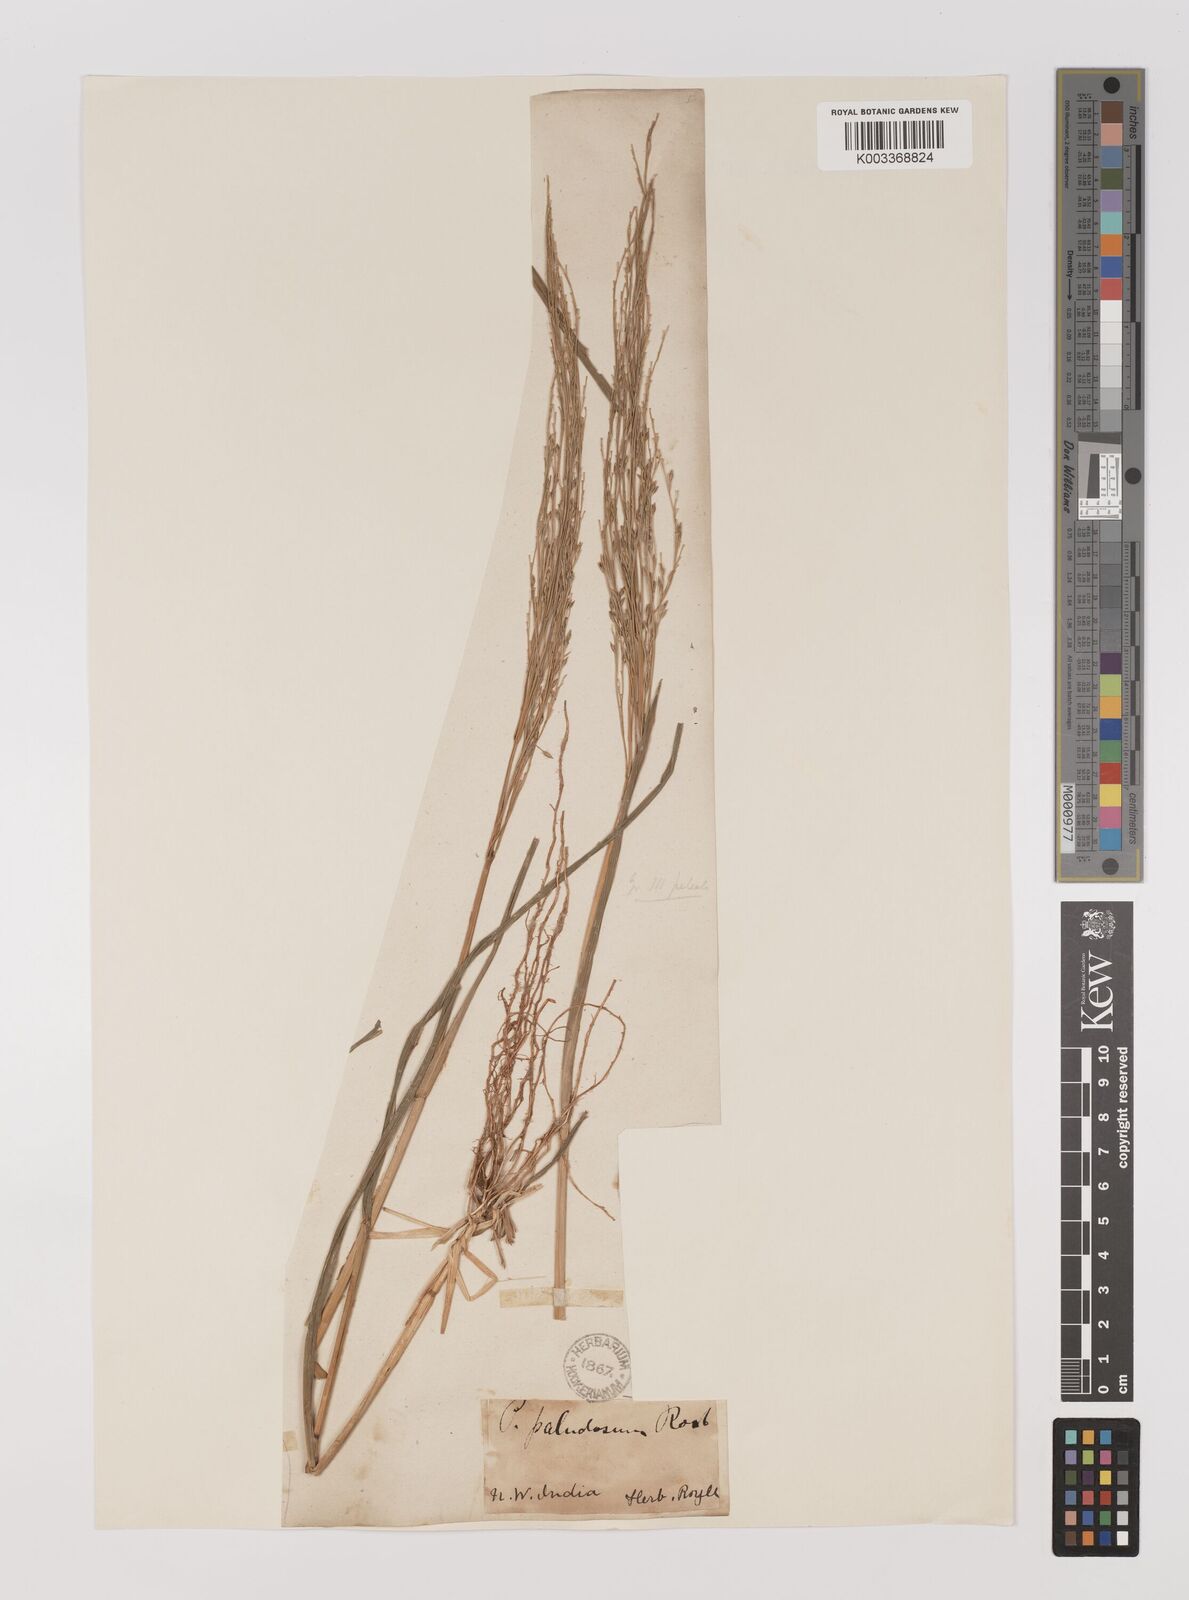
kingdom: Plantae
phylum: Tracheophyta
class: Liliopsida
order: Poales
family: Poaceae
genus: Louisiella
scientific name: Louisiella paludosa
